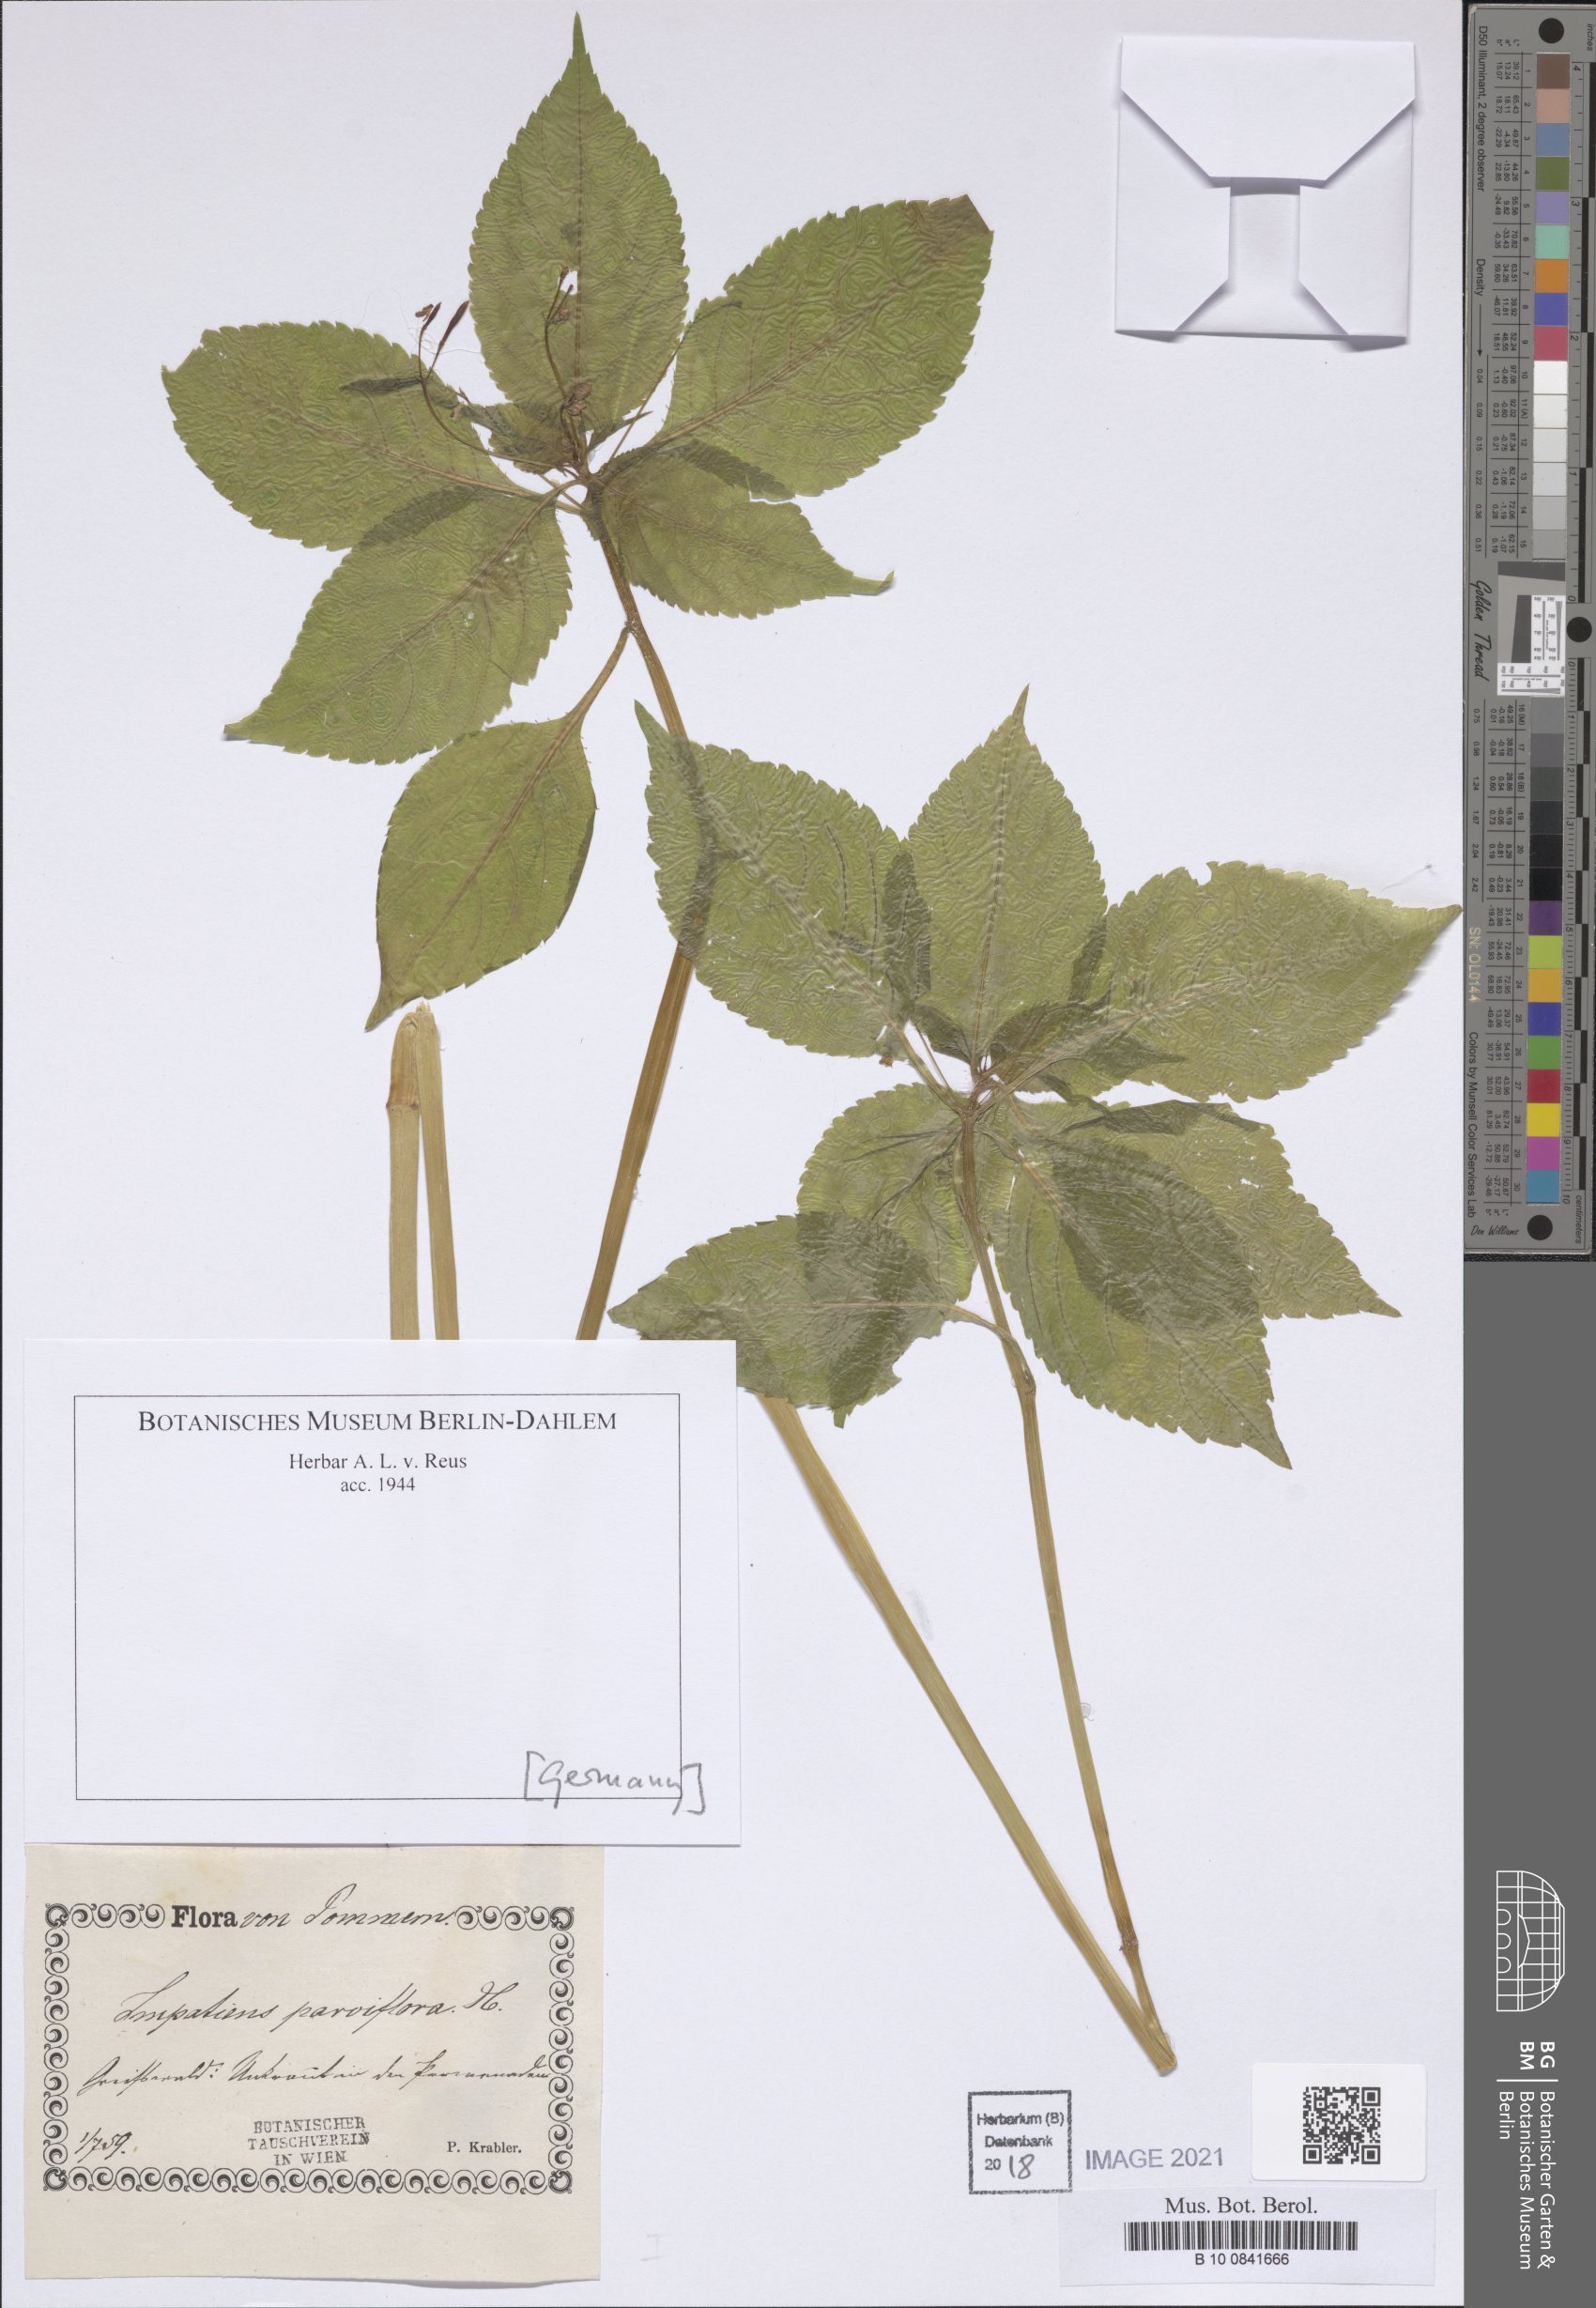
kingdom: Plantae
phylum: Tracheophyta
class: Magnoliopsida
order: Ericales
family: Balsaminaceae
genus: Impatiens
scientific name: Impatiens parviflora
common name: Small balsam
